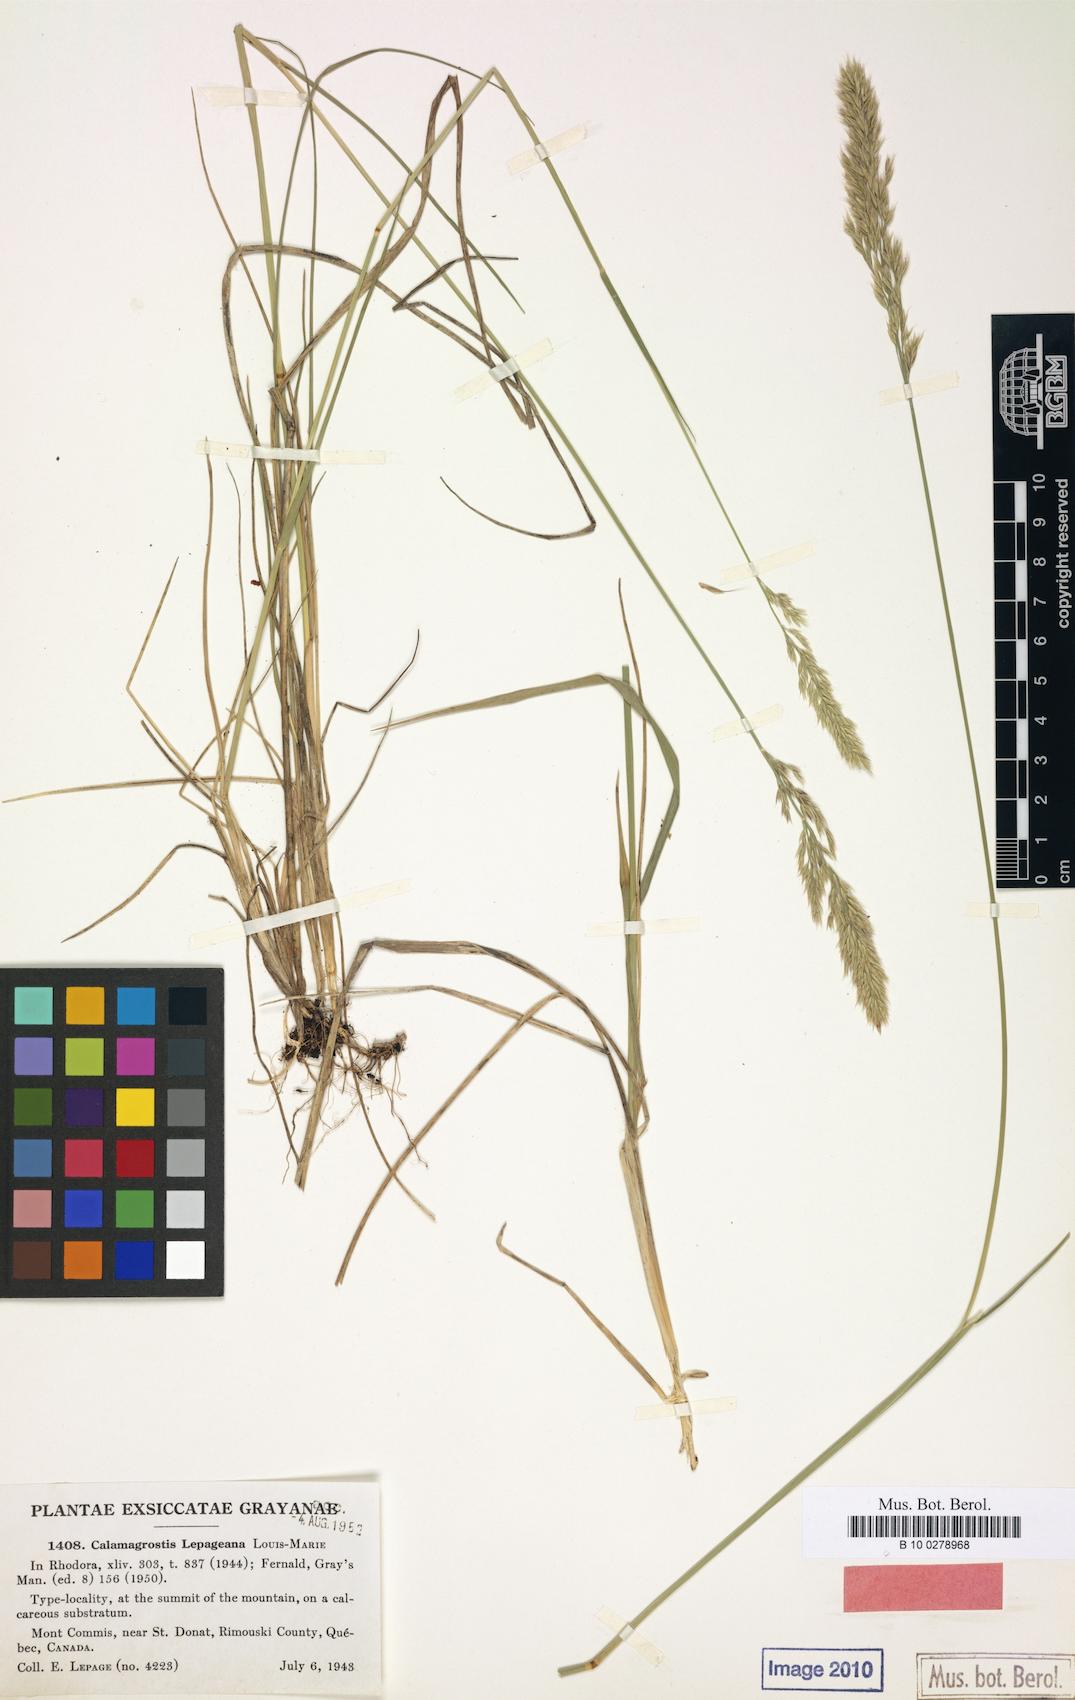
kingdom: Plantae
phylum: Tracheophyta
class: Liliopsida
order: Poales
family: Poaceae
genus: Calamagrostis
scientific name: Calamagrostis purpurascens
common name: Purple reedgrass
